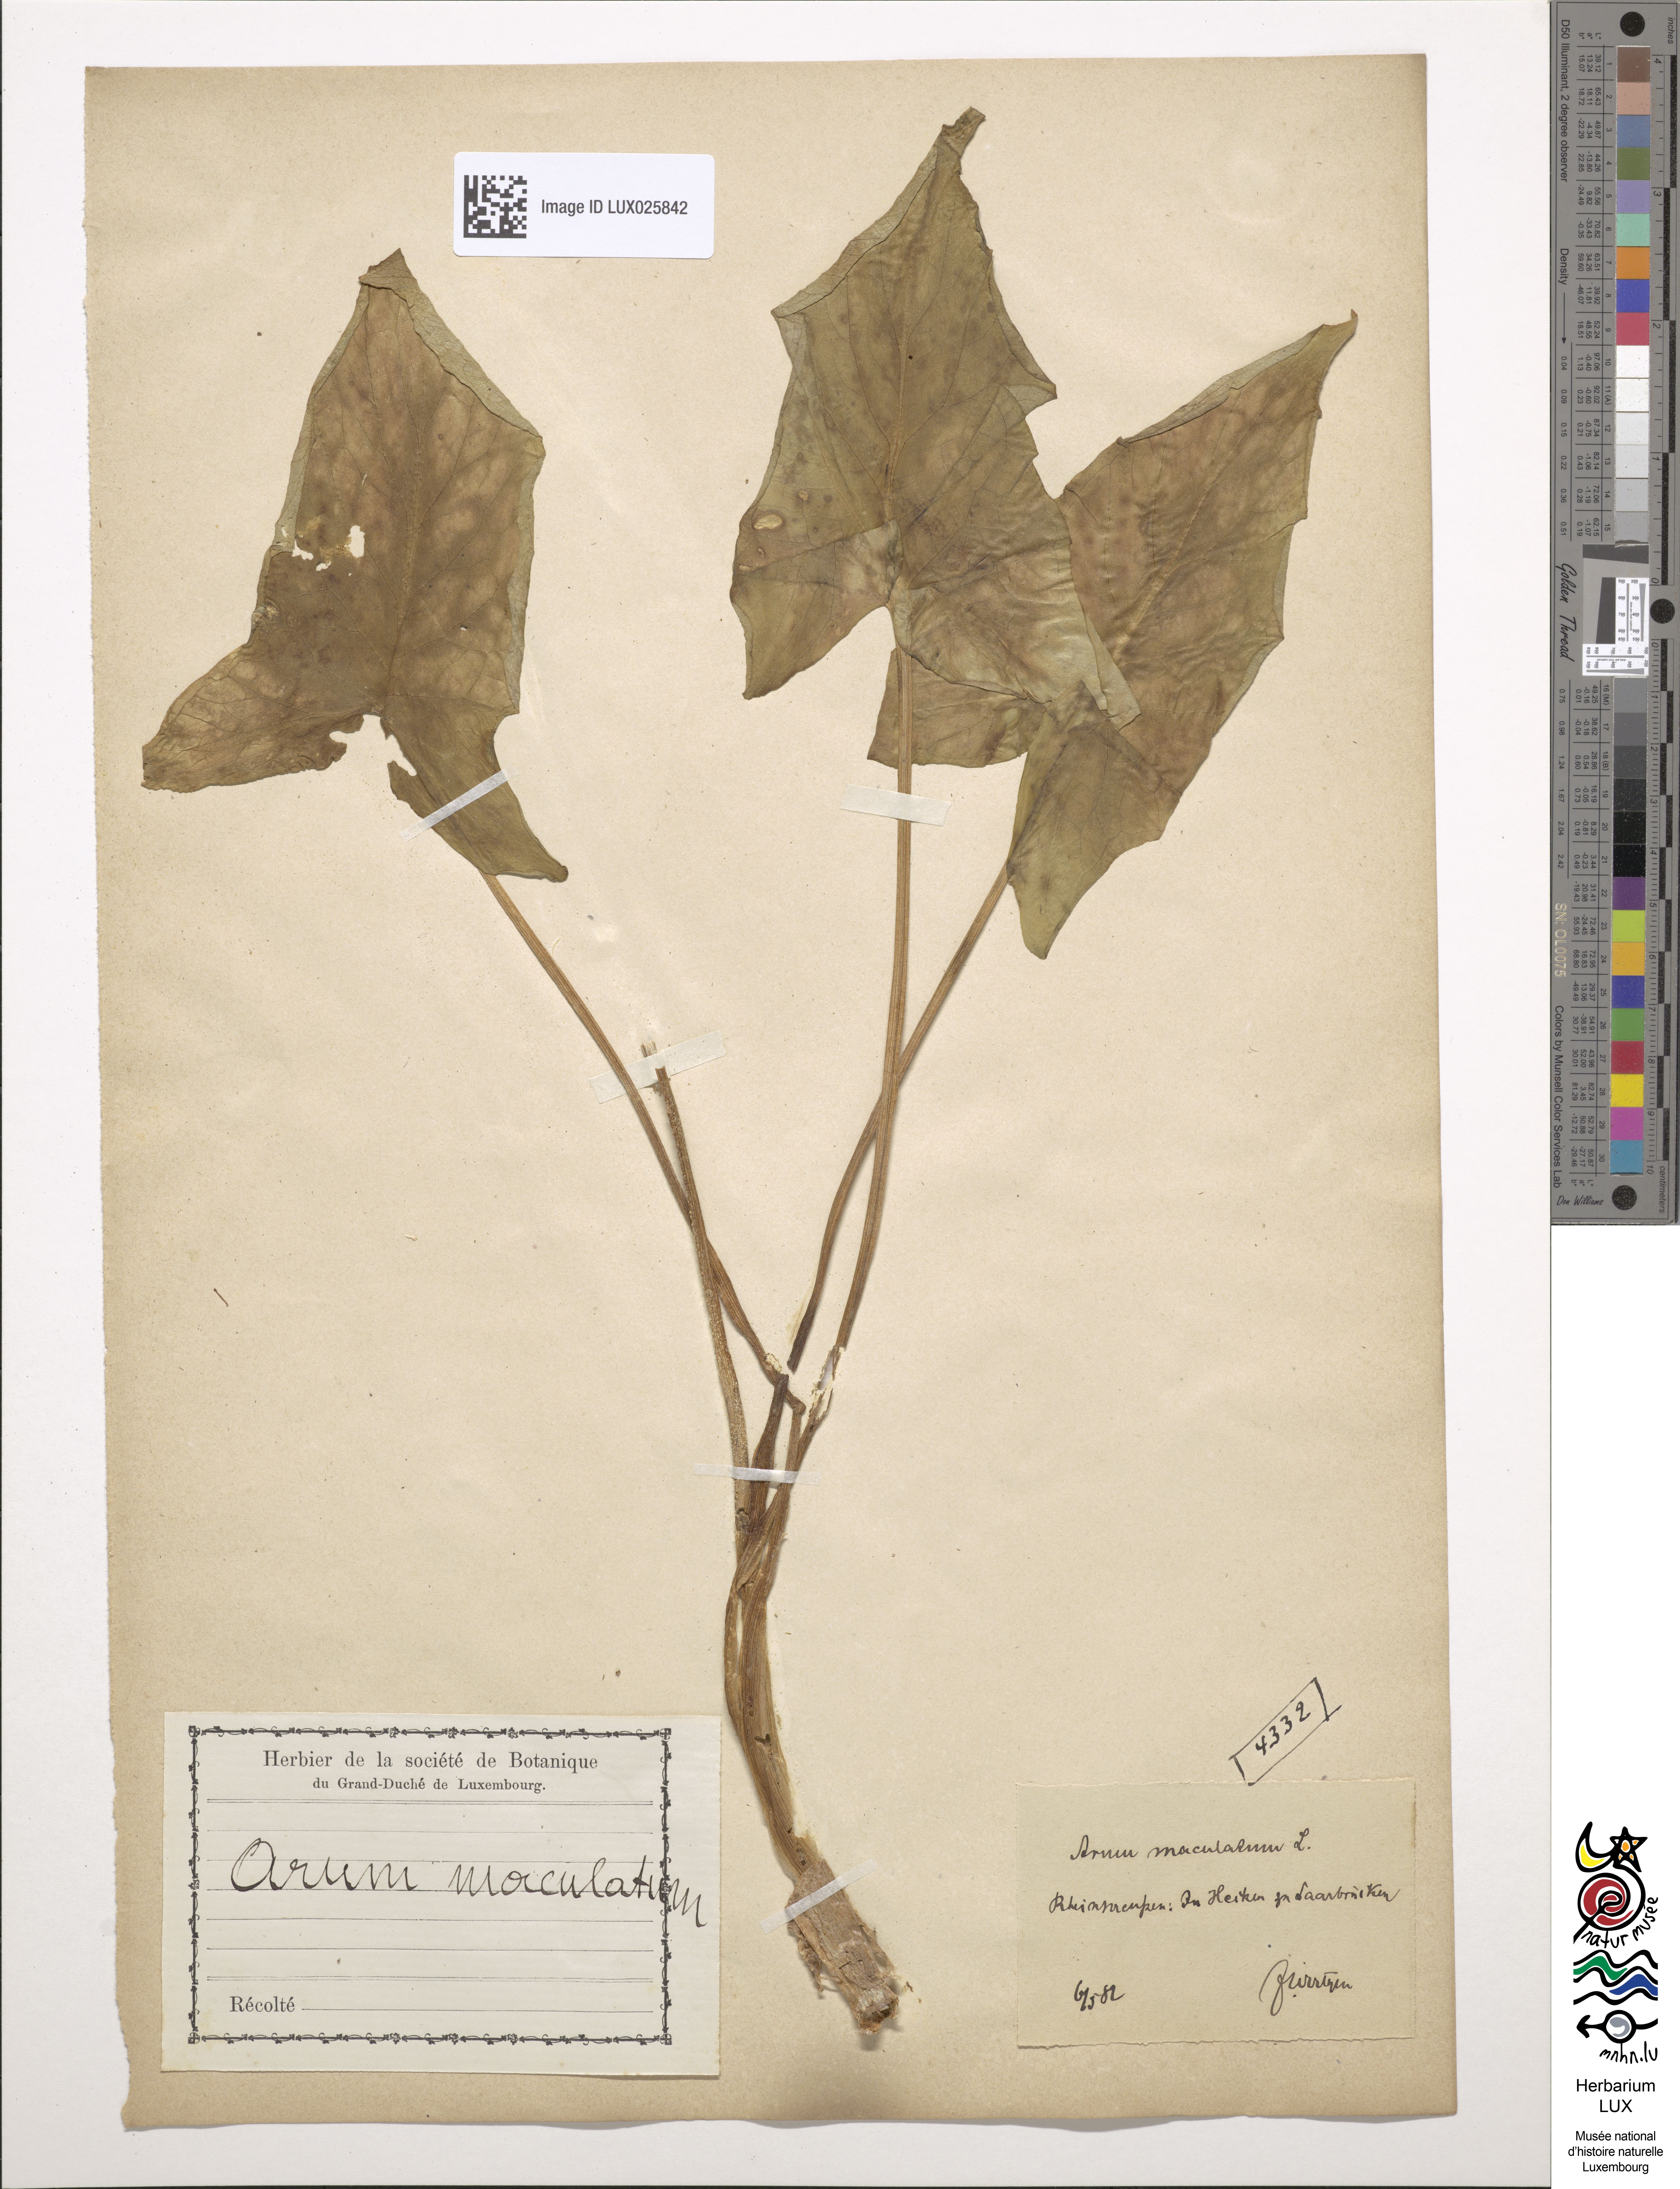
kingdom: Plantae
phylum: Tracheophyta
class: Liliopsida
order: Alismatales
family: Araceae
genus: Arum
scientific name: Arum maculatum
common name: Lords-and-ladies
